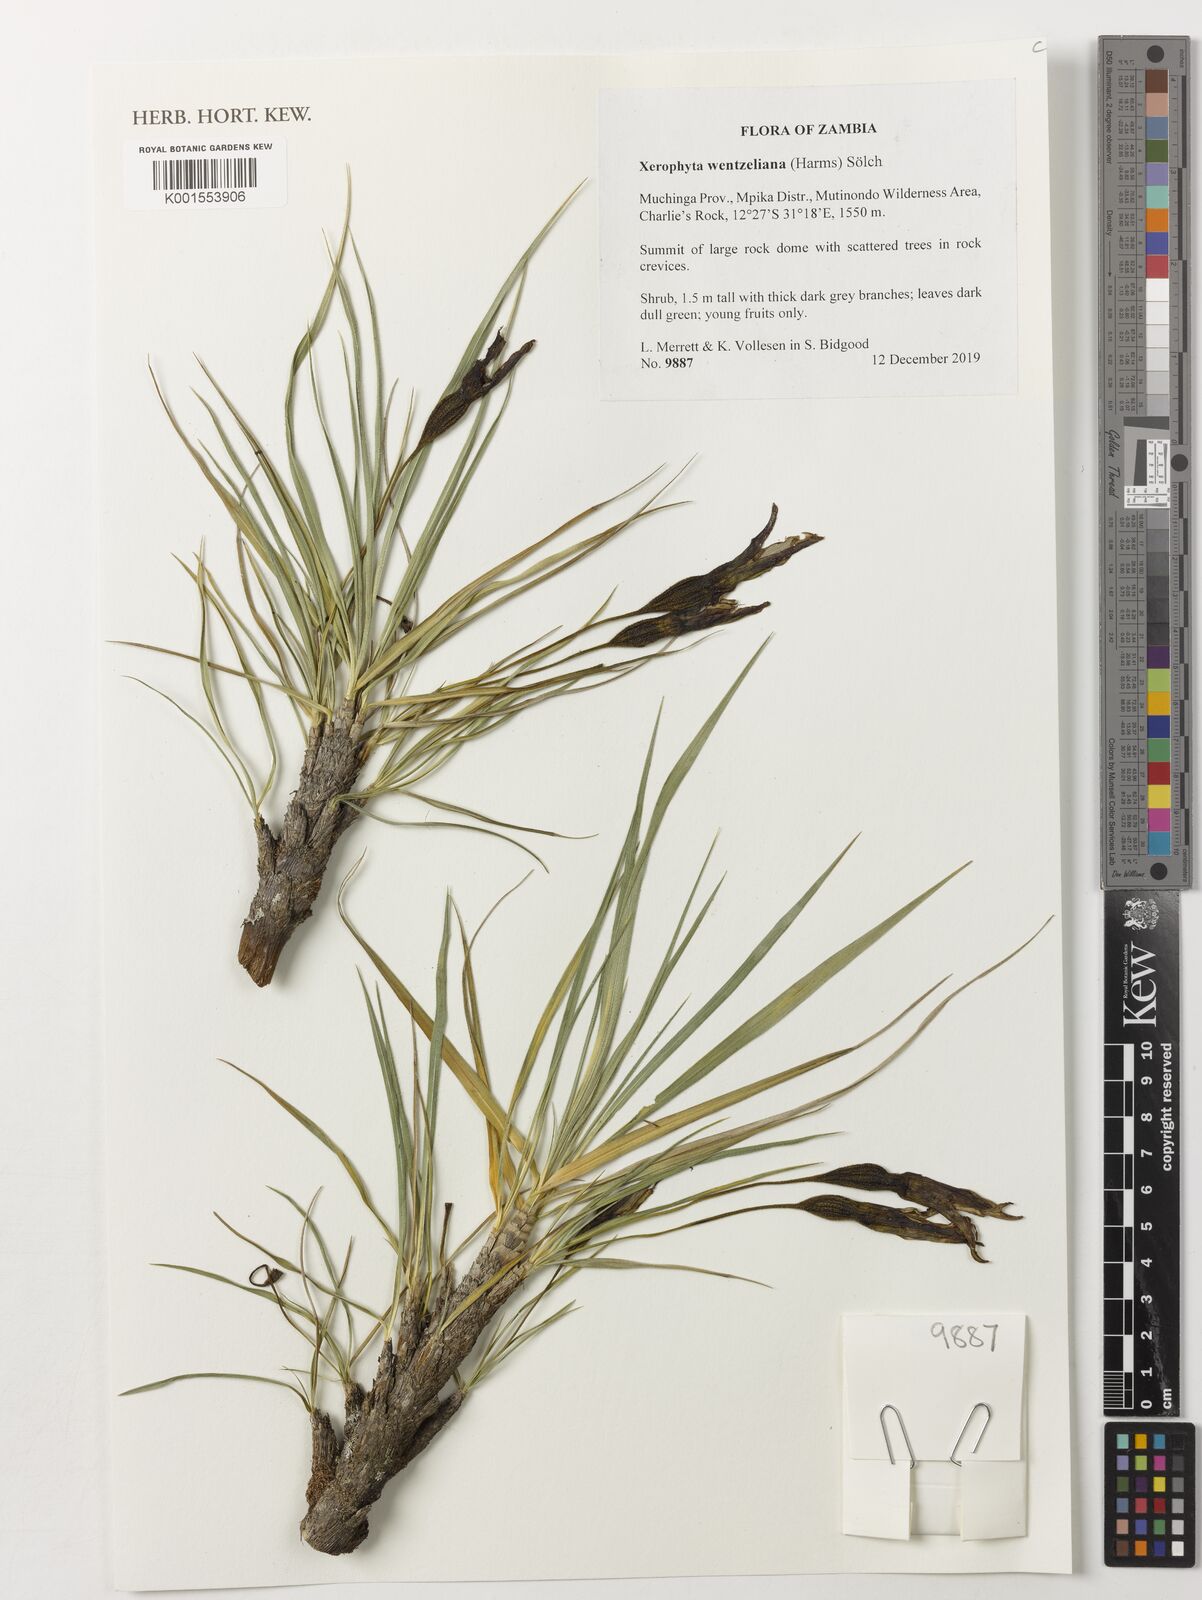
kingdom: Plantae
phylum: Tracheophyta
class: Liliopsida
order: Pandanales
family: Velloziaceae
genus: Xerophyta
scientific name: Xerophyta wentzeliana
